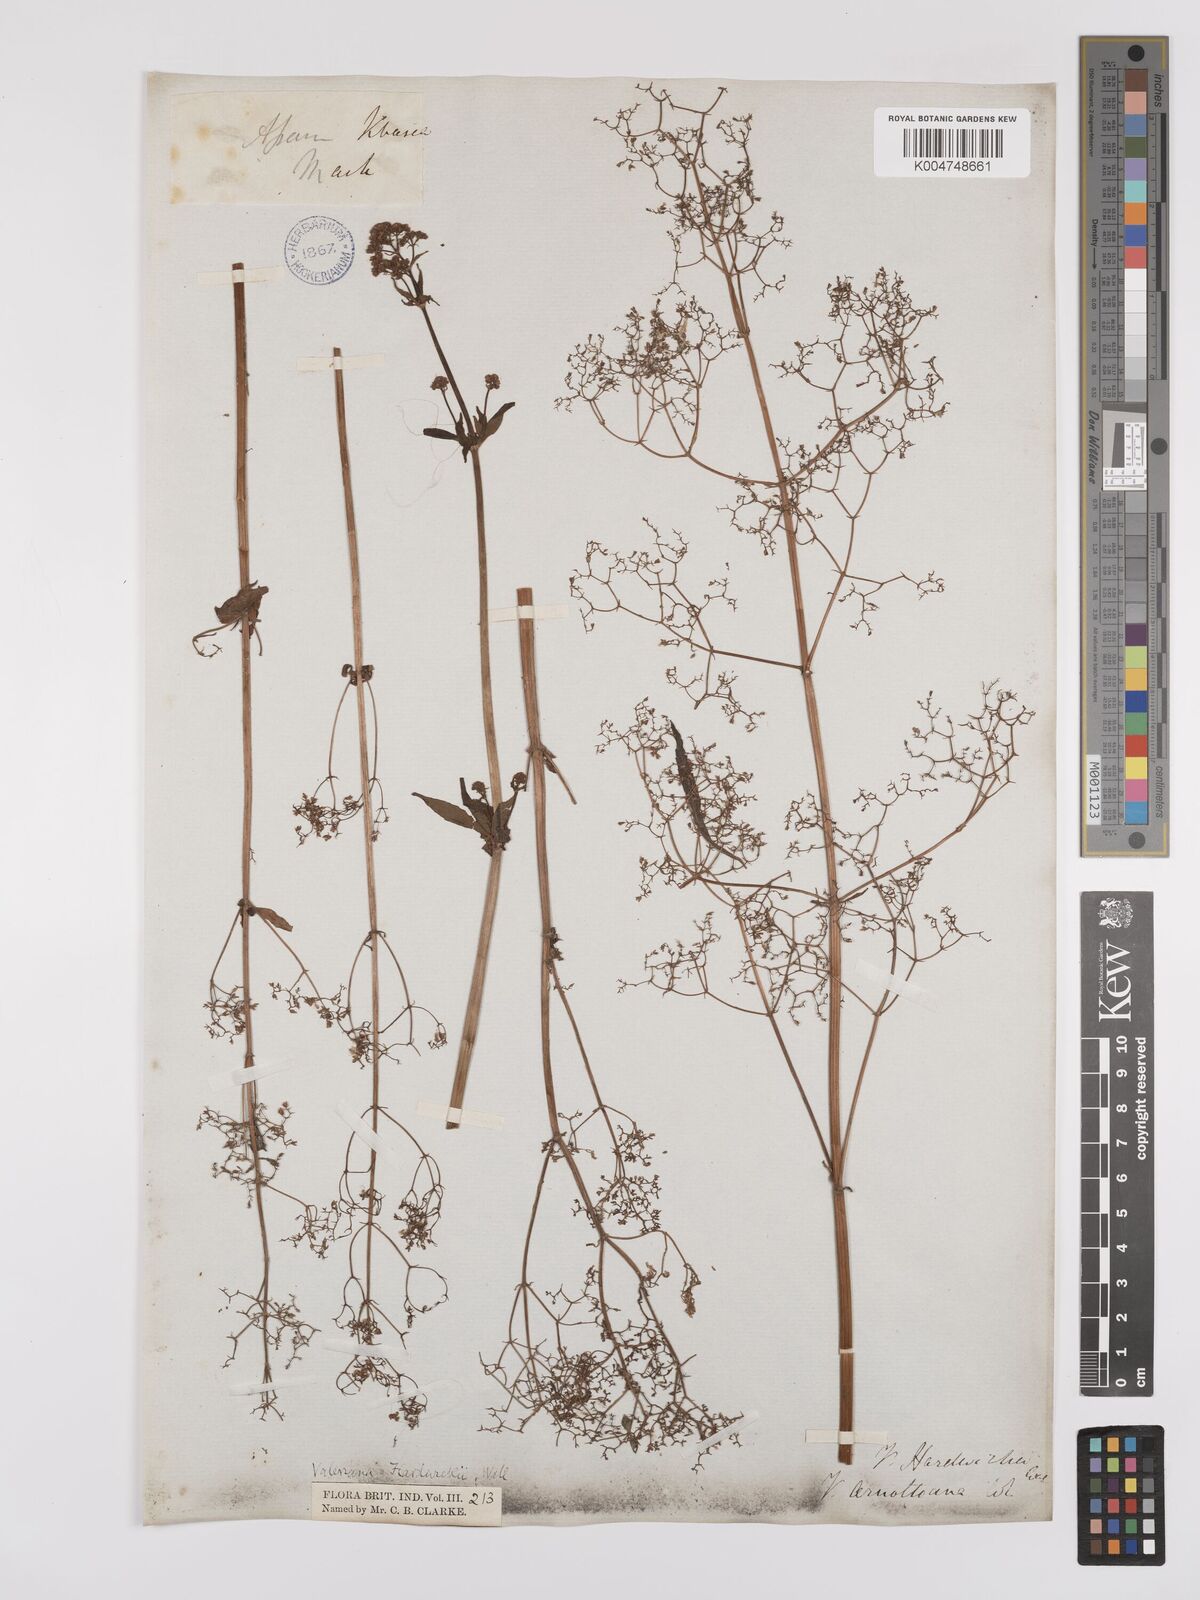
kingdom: Plantae
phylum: Tracheophyta
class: Magnoliopsida
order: Dipsacales
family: Caprifoliaceae
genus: Valeriana
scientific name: Valeriana hardwickei
